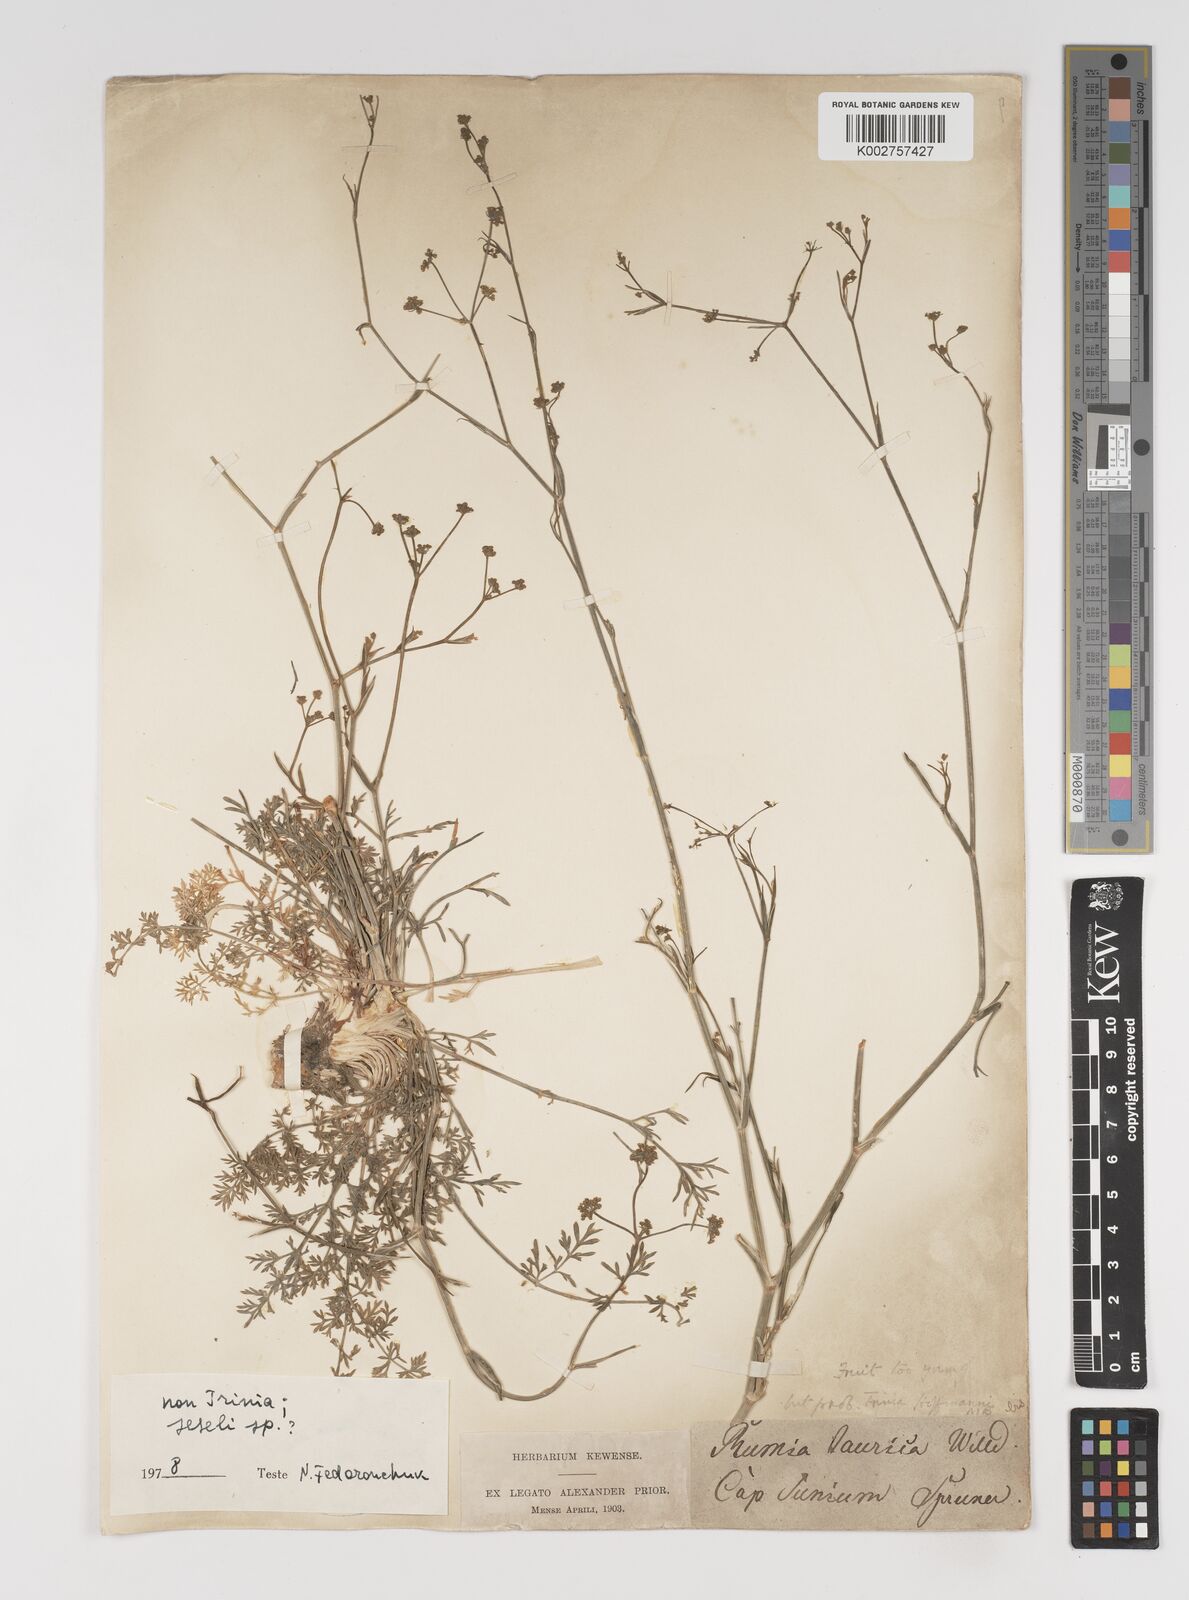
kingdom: Plantae
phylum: Tracheophyta
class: Magnoliopsida
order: Apiales
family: Apiaceae
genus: Seseli
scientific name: Seseli
